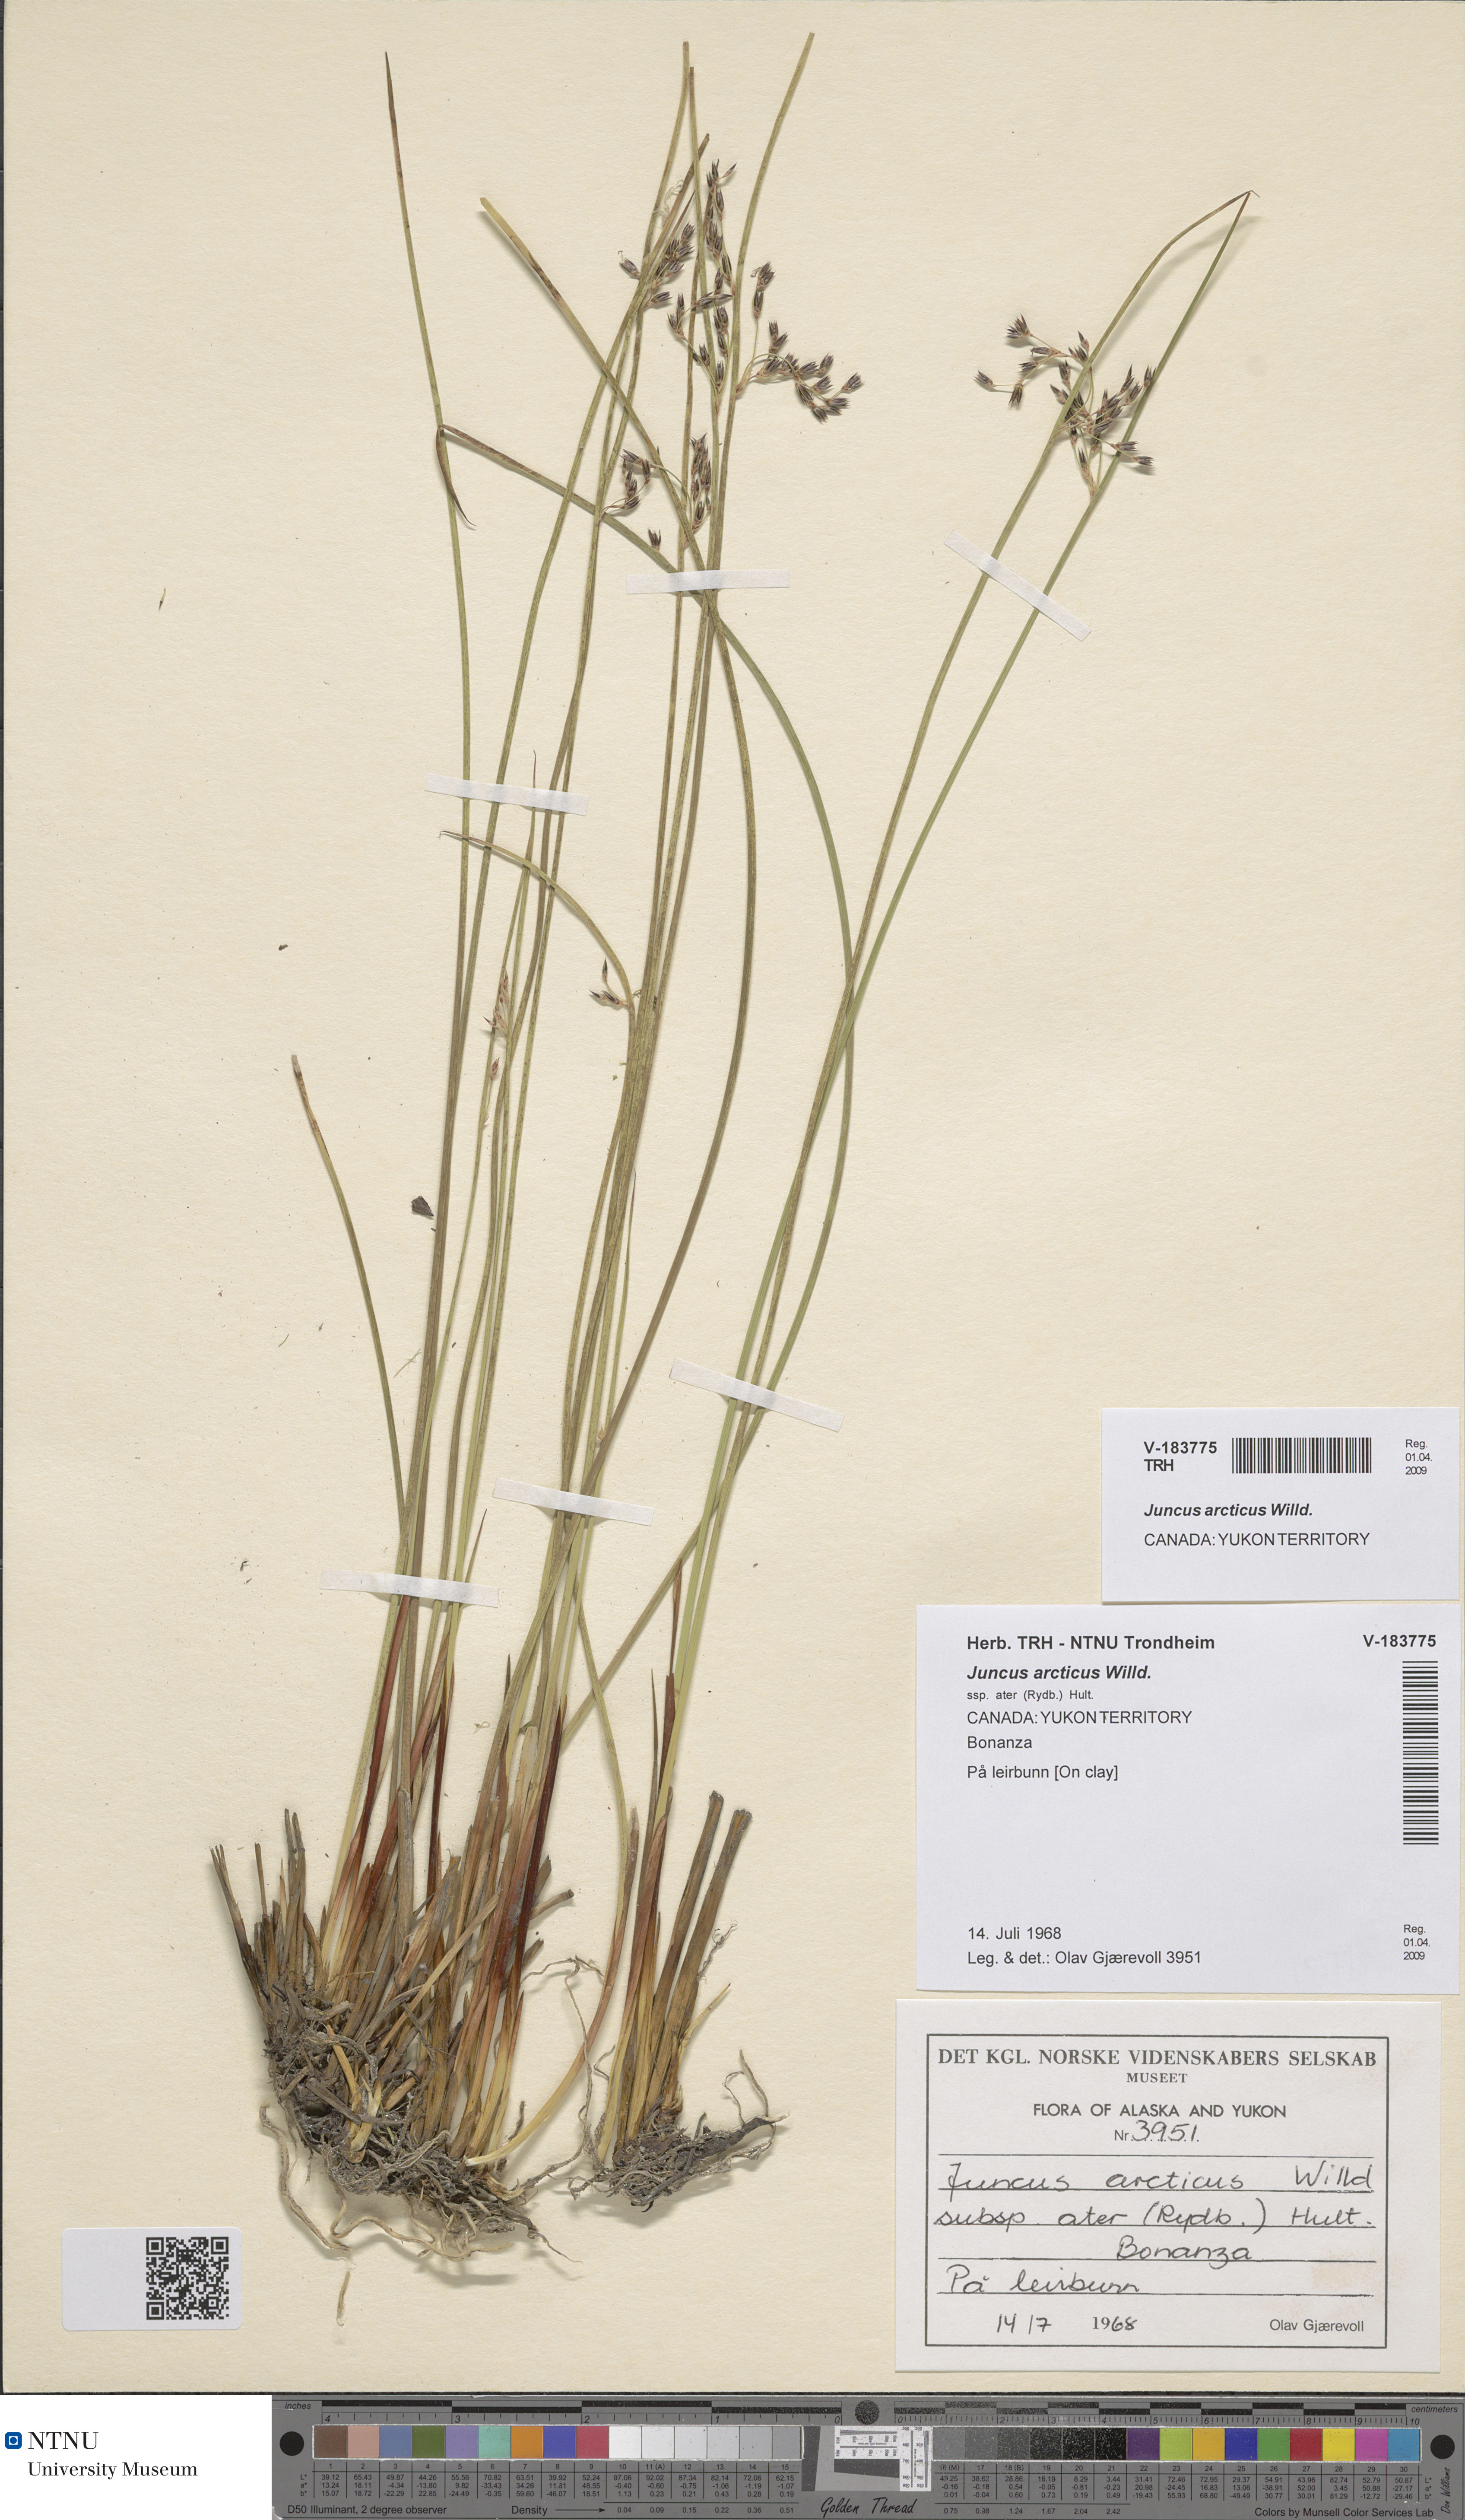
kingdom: Plantae
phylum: Tracheophyta
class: Liliopsida
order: Poales
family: Juncaceae
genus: Juncus
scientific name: Juncus arcticus
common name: Arctic rush
